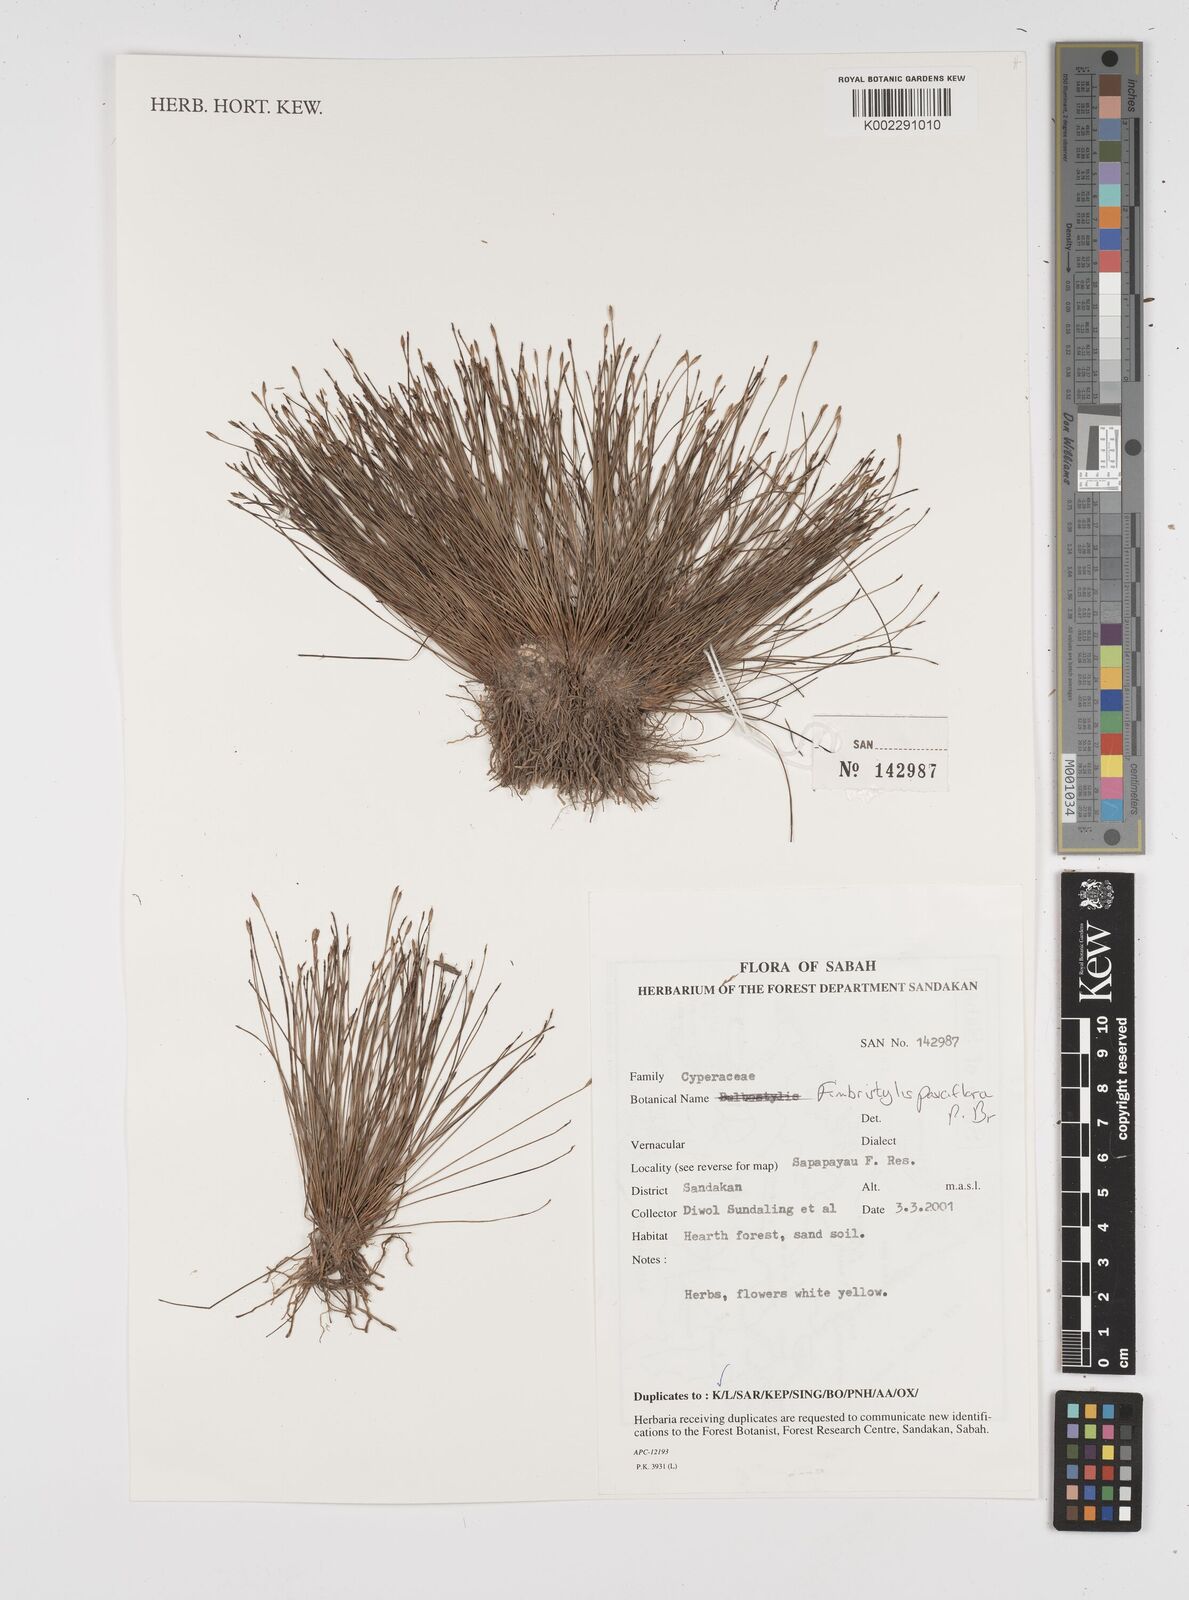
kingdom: Plantae
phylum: Tracheophyta
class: Liliopsida
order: Poales
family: Cyperaceae
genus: Fimbristylis
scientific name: Fimbristylis pauciflora
